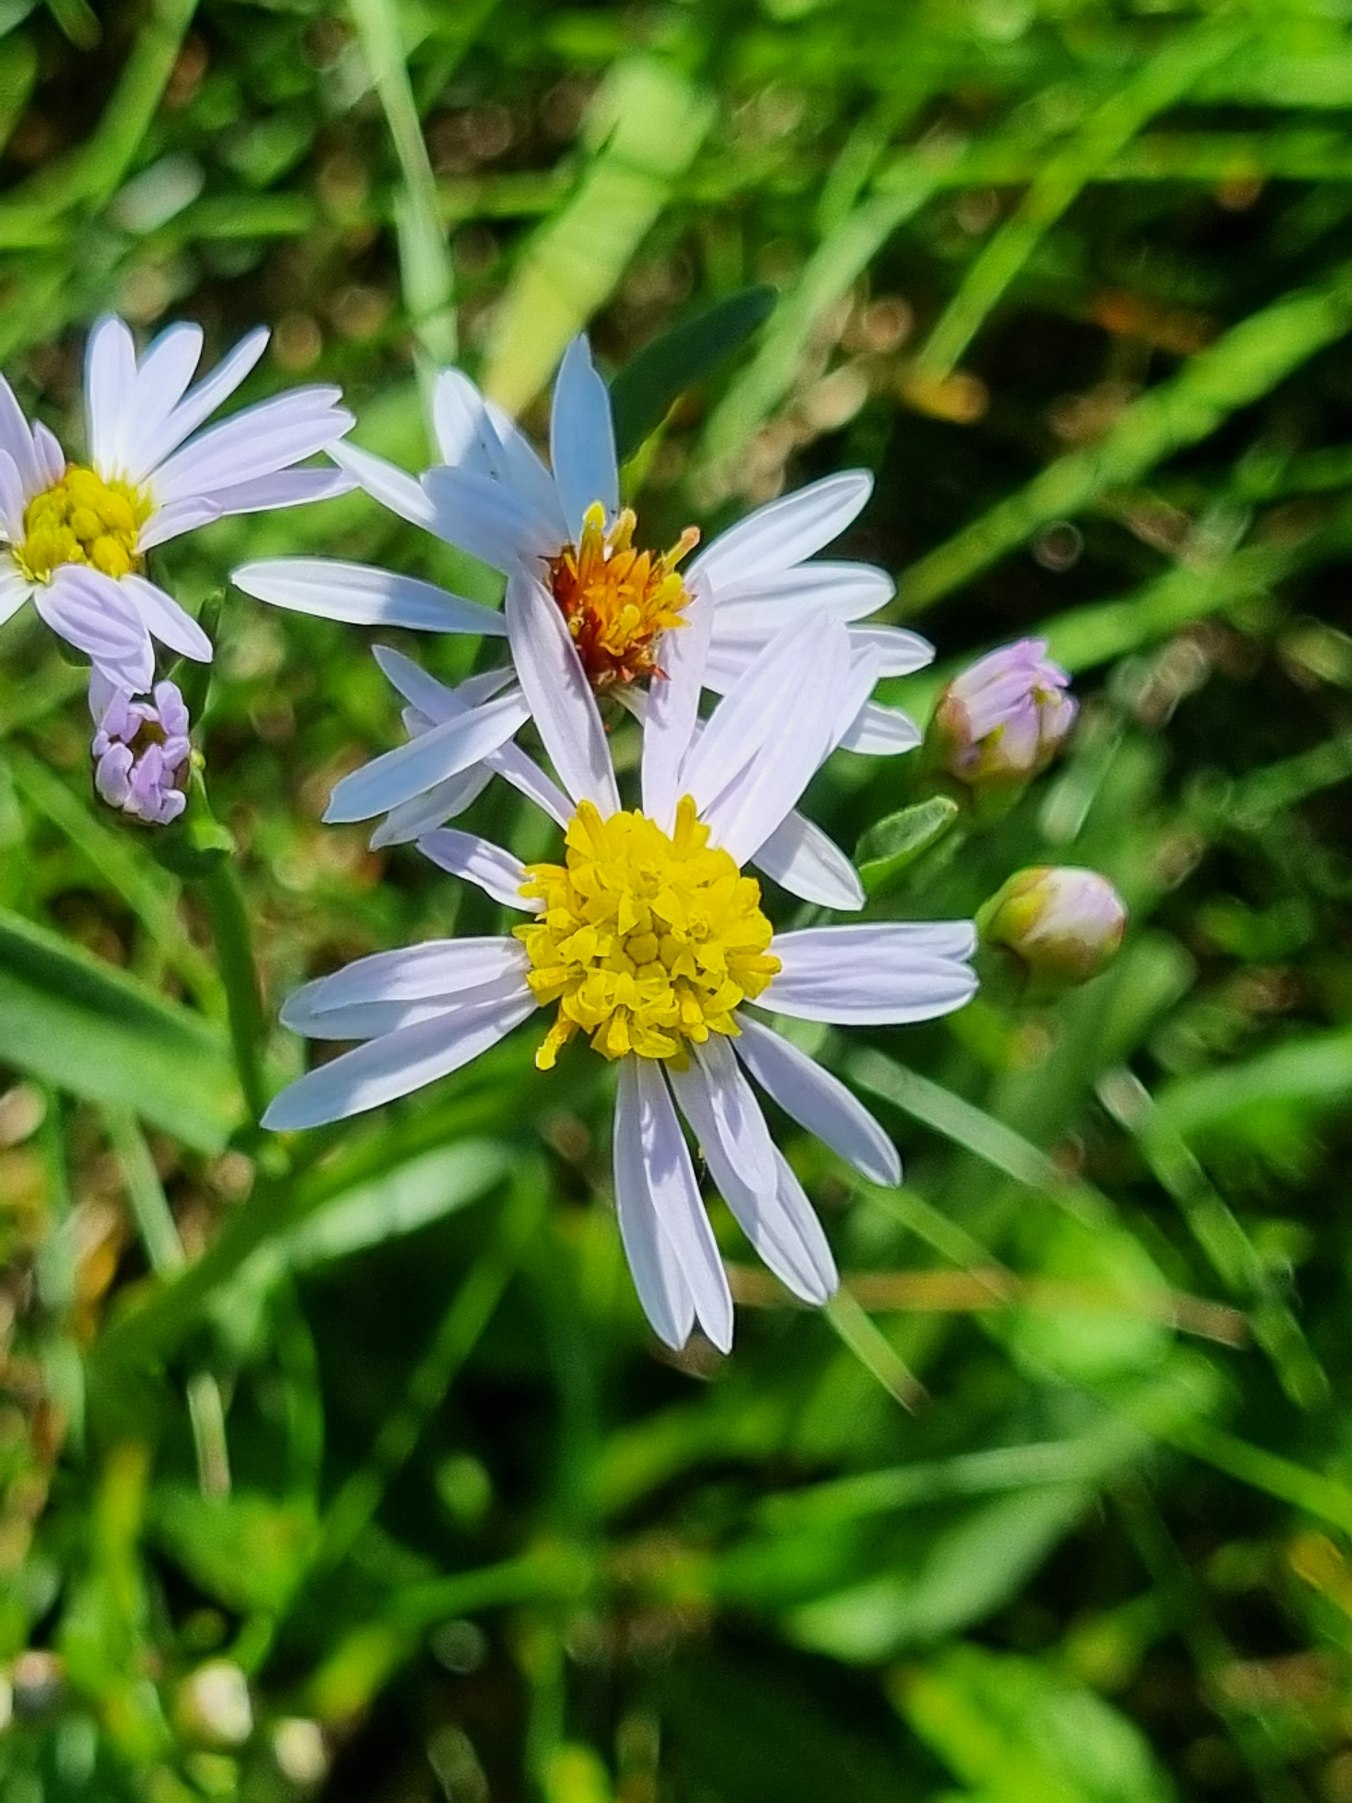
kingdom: Plantae
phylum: Tracheophyta
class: Magnoliopsida
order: Asterales
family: Asteraceae
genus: Tripolium
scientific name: Tripolium pannonicum
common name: Strandasters
